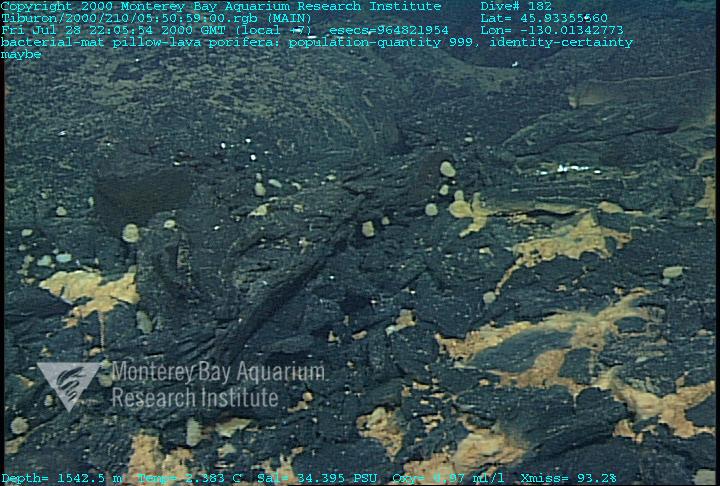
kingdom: Animalia
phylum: Porifera
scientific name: Porifera
